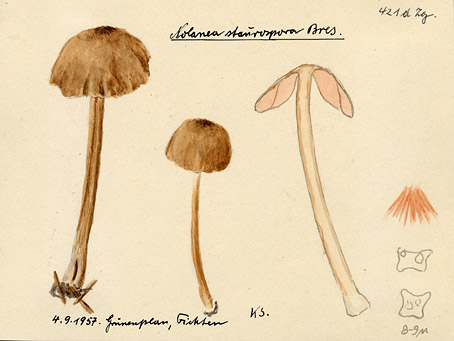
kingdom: Fungi
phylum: Basidiomycota
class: Agaricomycetes
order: Agaricales
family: Entolomataceae
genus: Entoloma
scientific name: Entoloma conferendum
